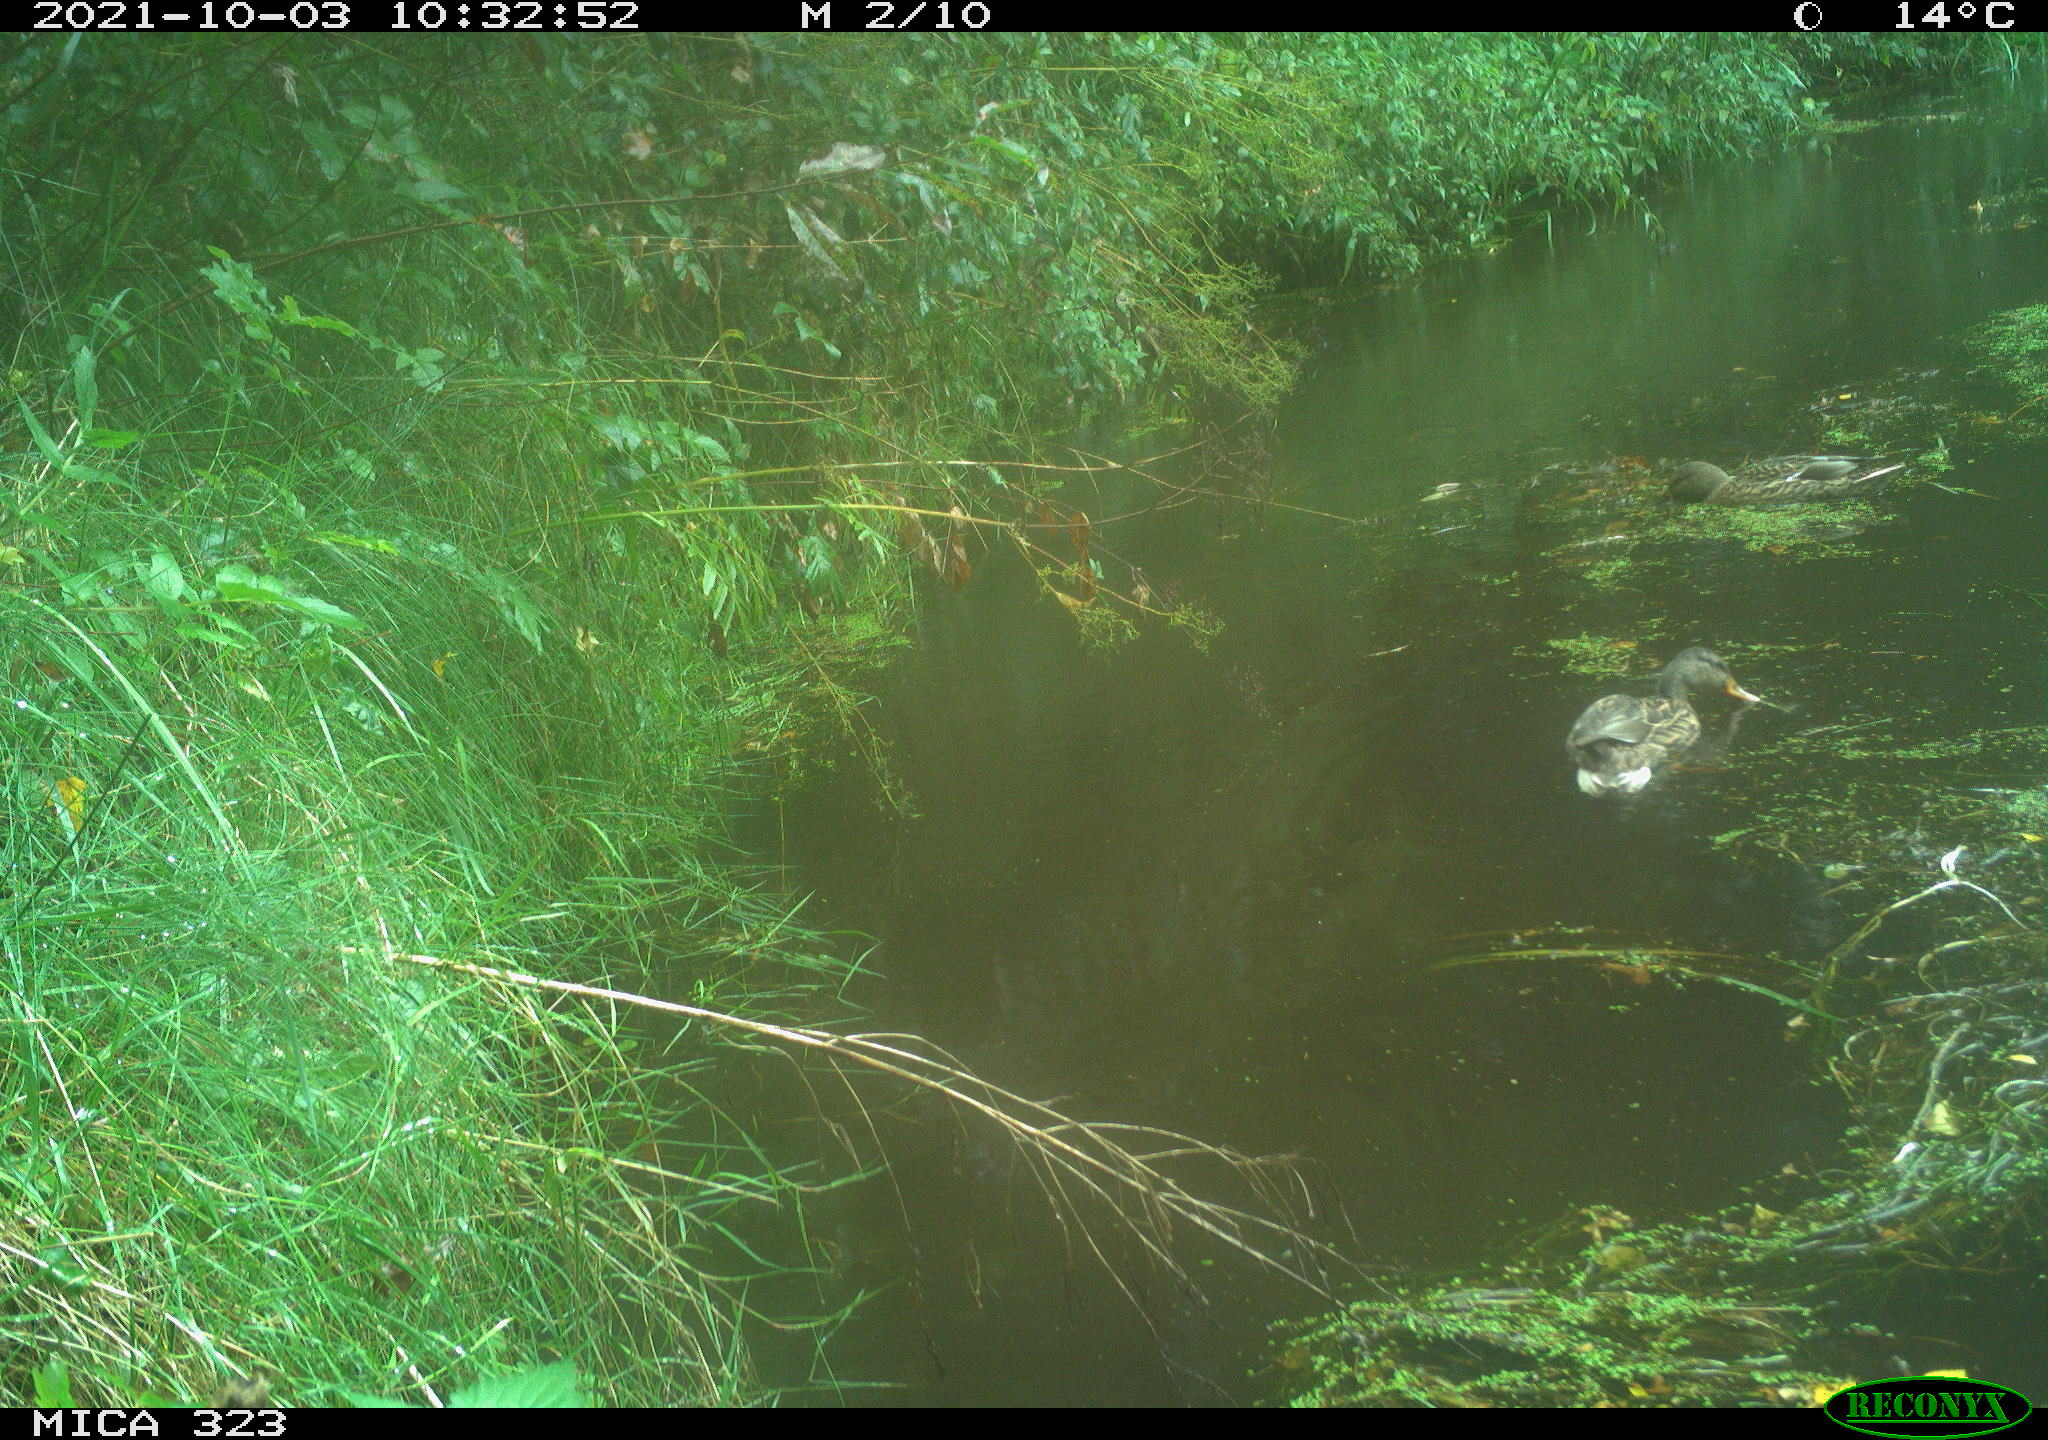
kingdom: Animalia
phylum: Chordata
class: Aves
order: Anseriformes
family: Anatidae
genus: Anas
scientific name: Anas platyrhynchos
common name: Mallard
